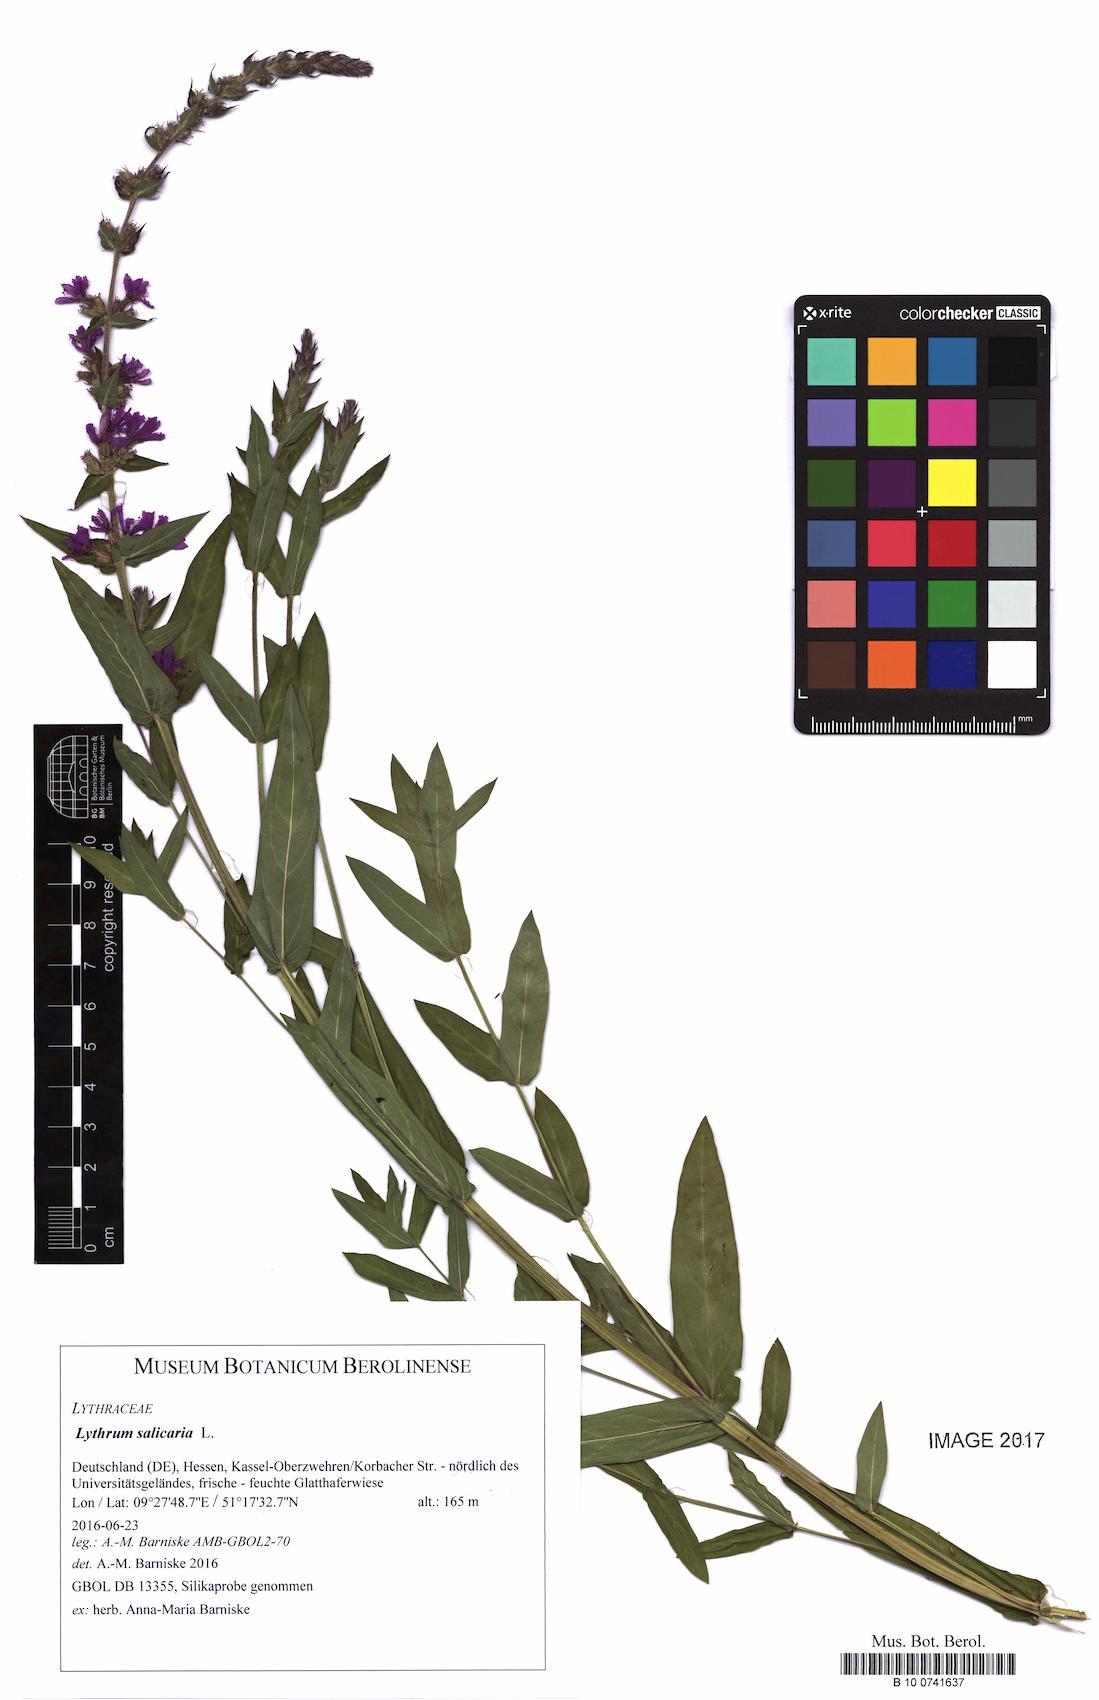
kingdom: Plantae
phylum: Tracheophyta
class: Magnoliopsida
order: Myrtales
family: Lythraceae
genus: Lythrum
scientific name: Lythrum salicaria
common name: Purple loosestrife
